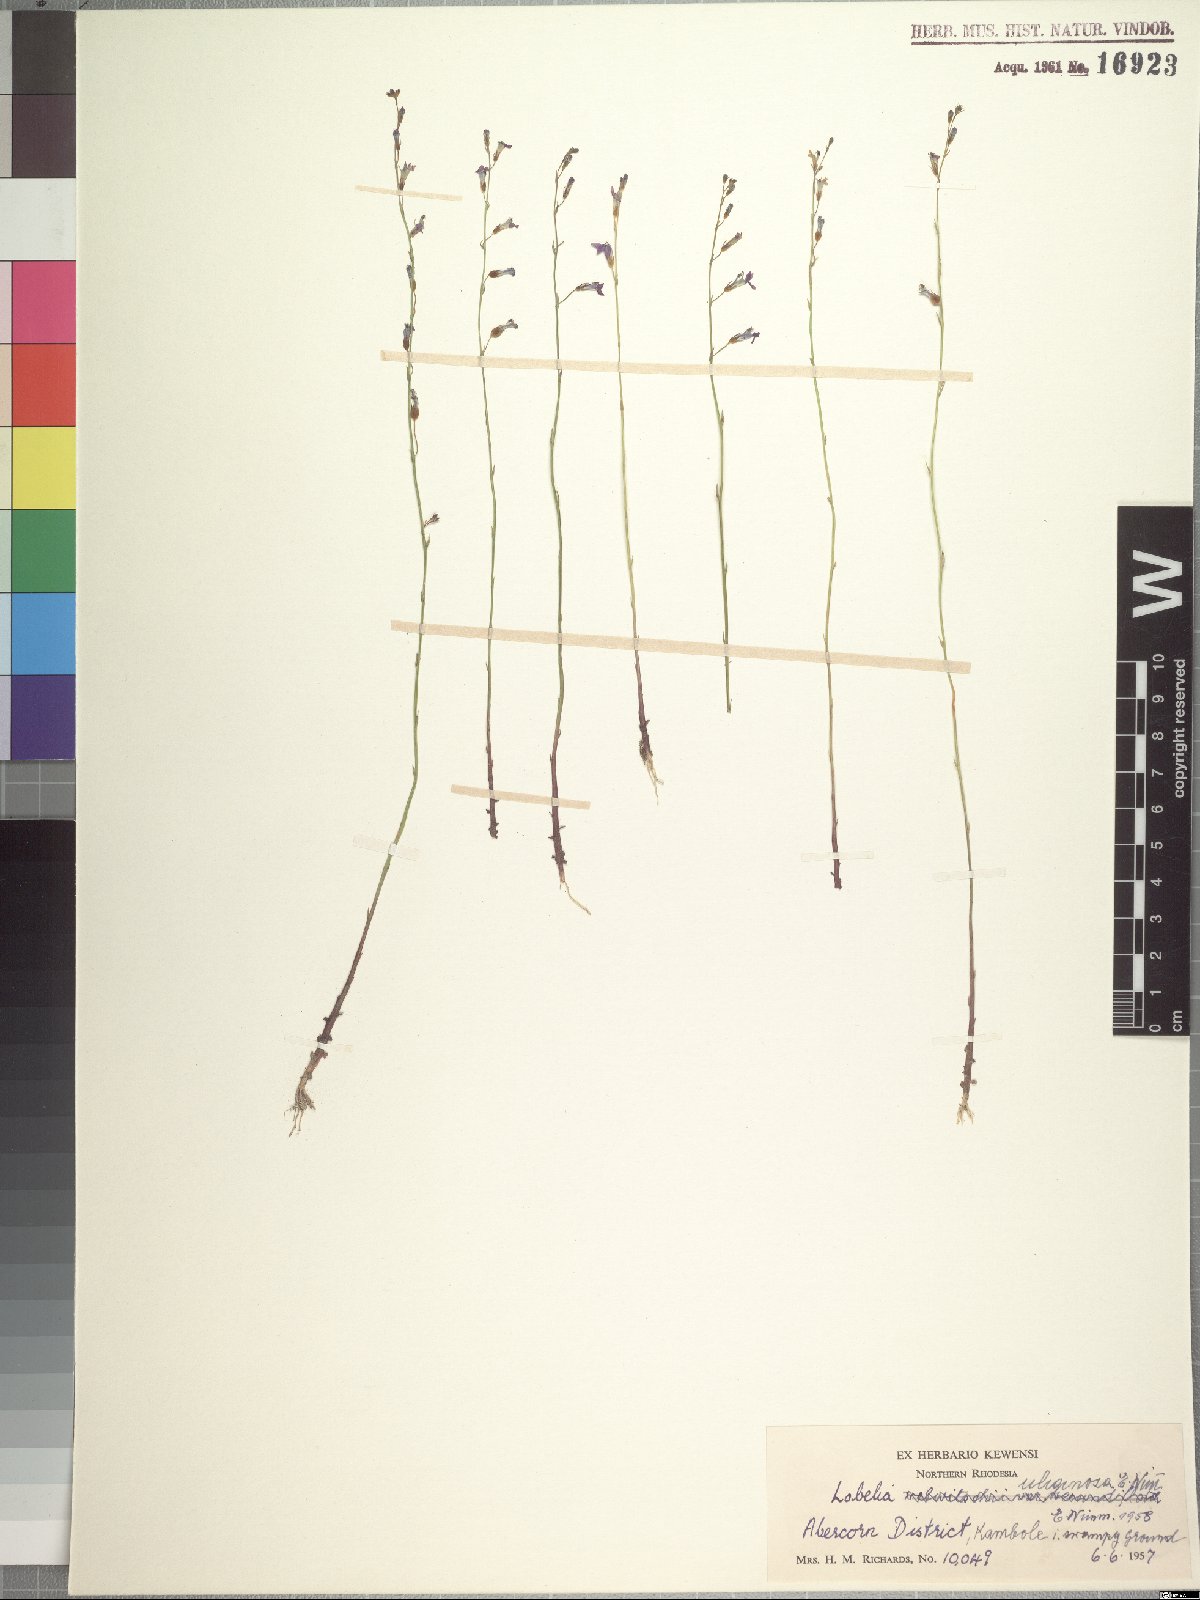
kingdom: Plantae
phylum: Tracheophyta
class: Magnoliopsida
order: Asterales
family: Campanulaceae
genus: Lobelia
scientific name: Lobelia uliginosa
